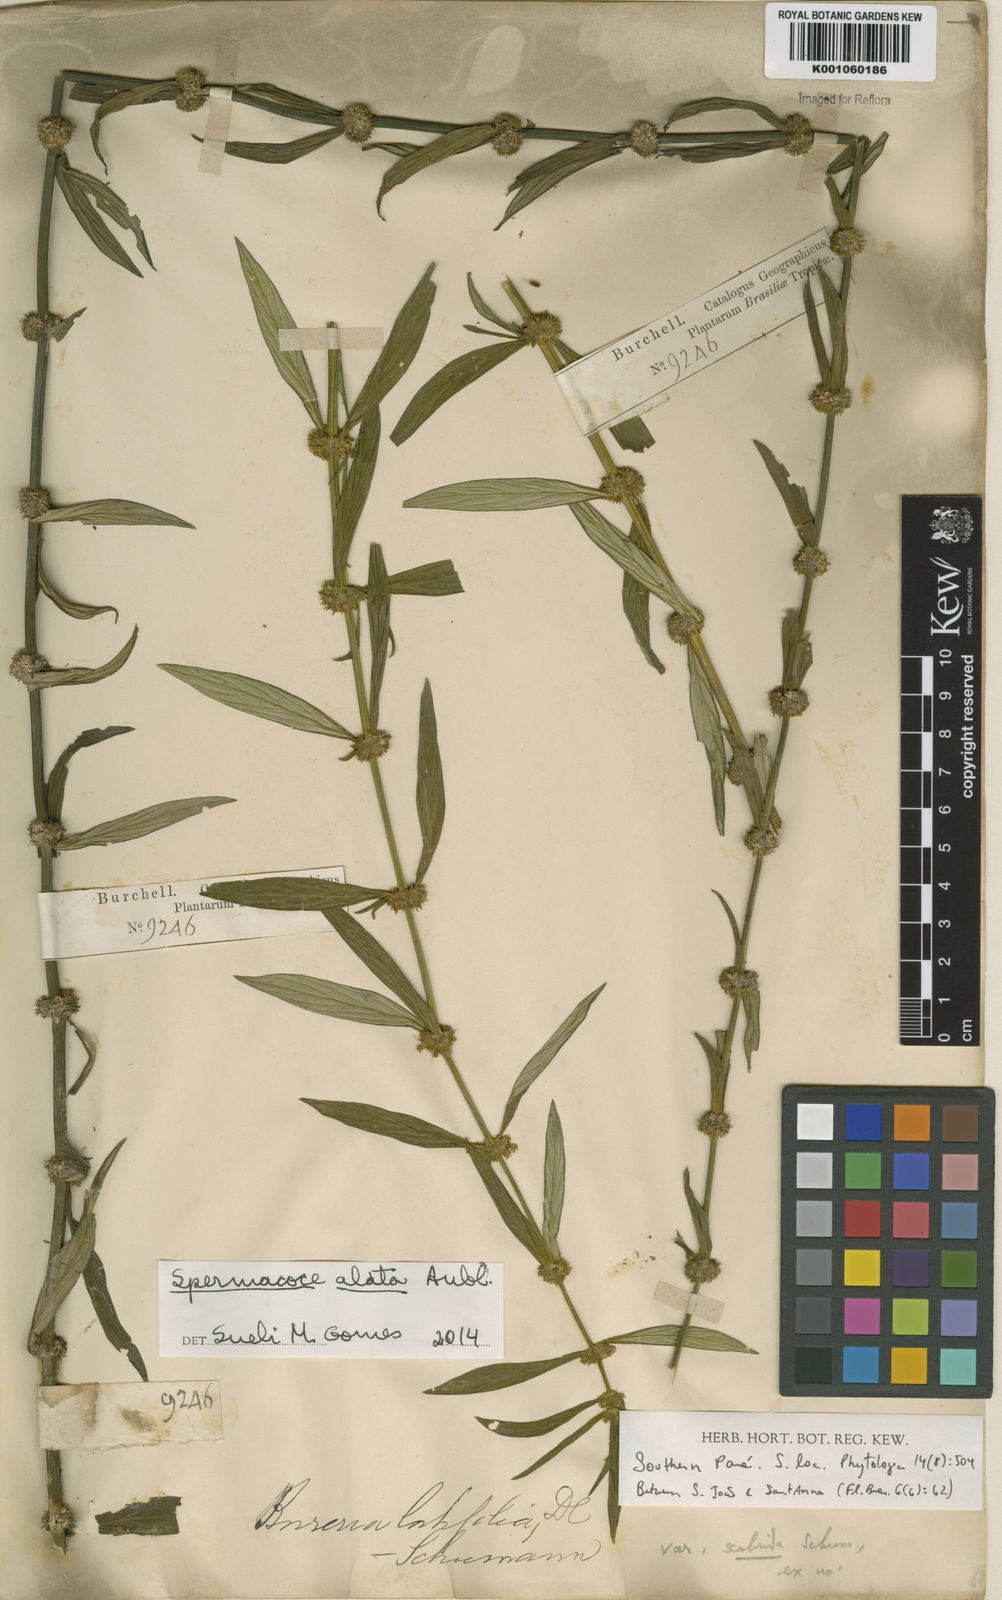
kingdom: Plantae
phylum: Tracheophyta
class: Magnoliopsida
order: Gentianales
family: Rubiaceae
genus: Spermacoce
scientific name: Spermacoce
